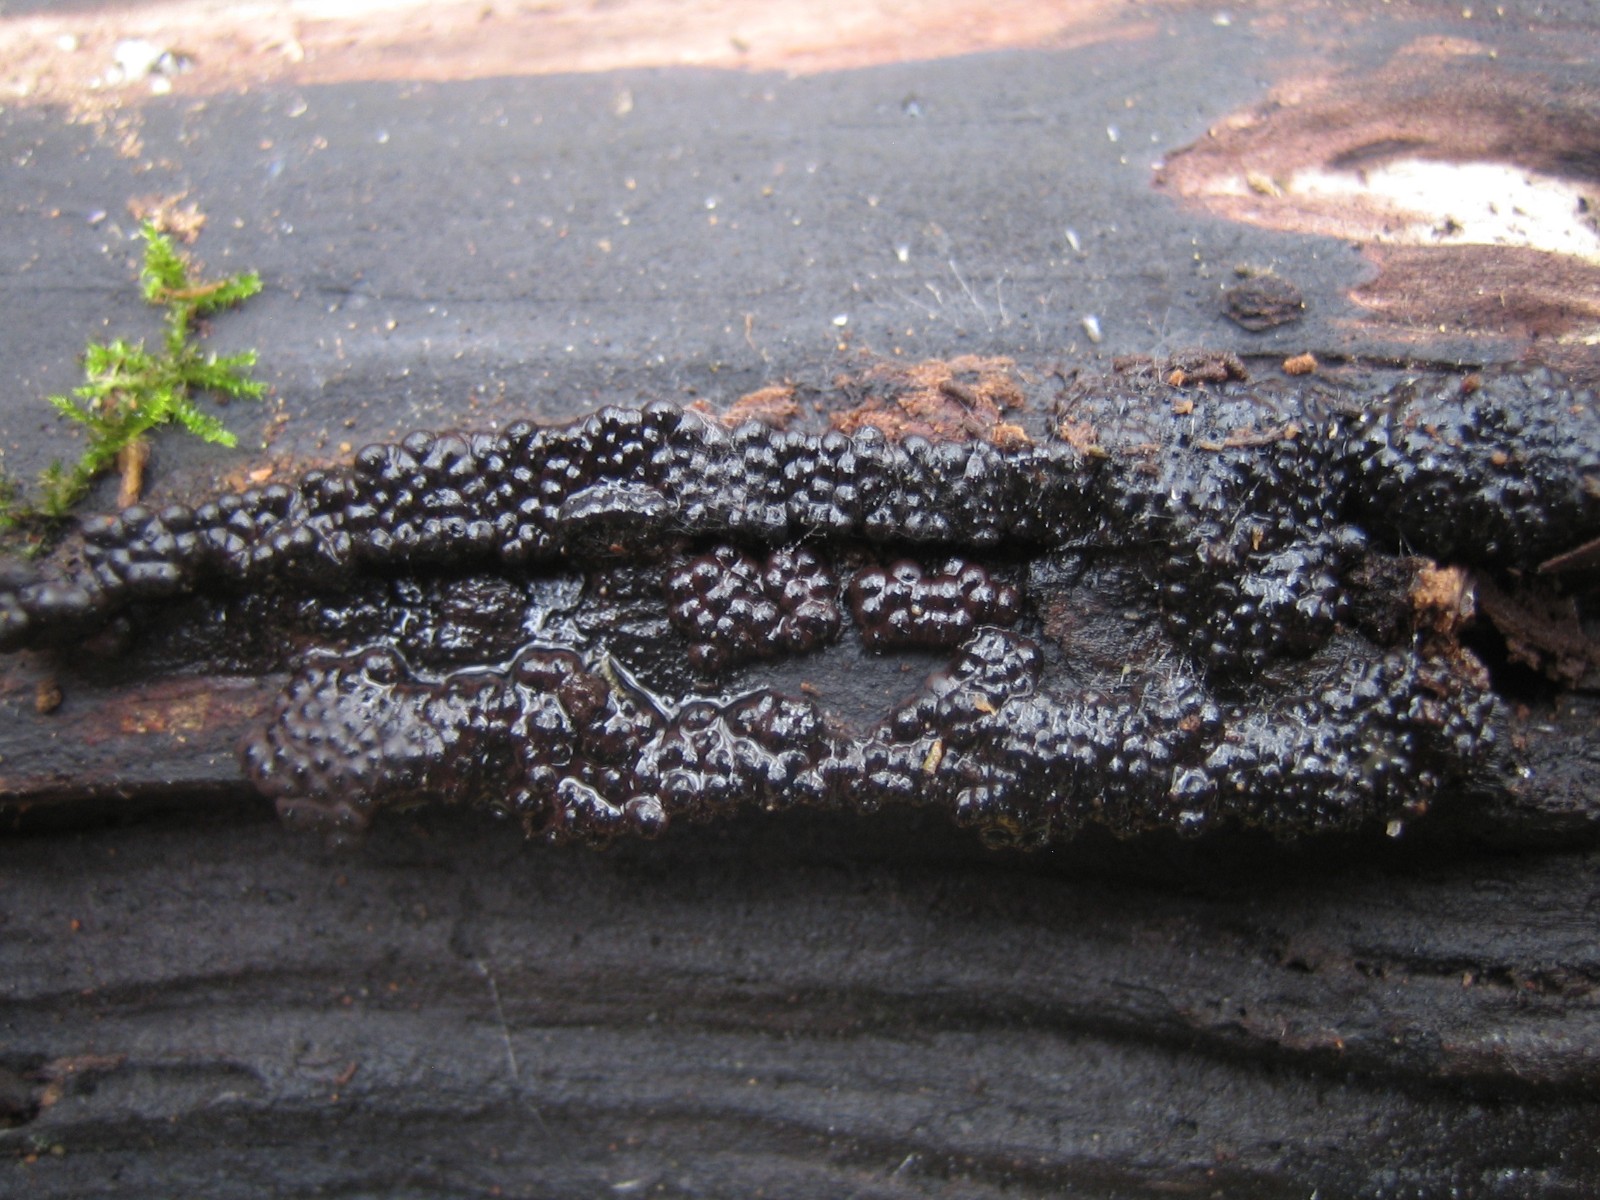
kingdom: Fungi
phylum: Ascomycota
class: Sordariomycetes
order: Xylariales
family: Hypoxylaceae
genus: Jackrogersella
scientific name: Jackrogersella
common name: kulbær
